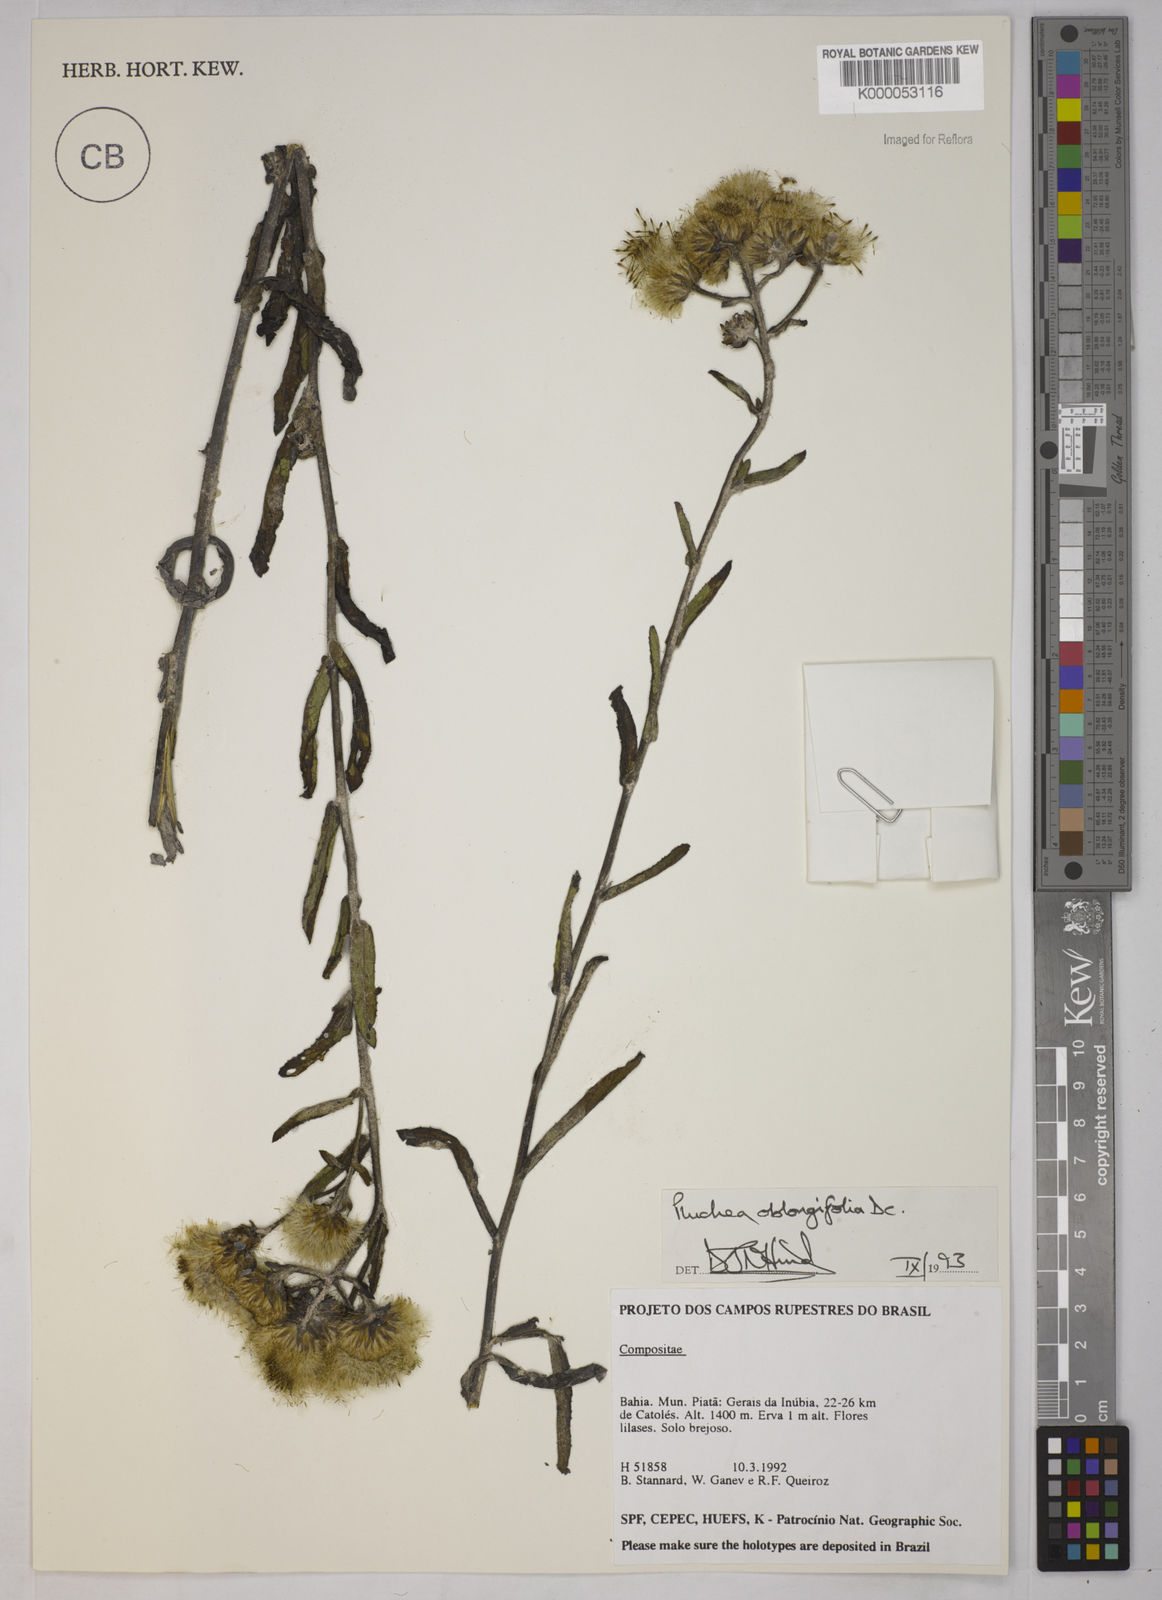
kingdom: Plantae
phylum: Tracheophyta
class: Magnoliopsida
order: Asterales
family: Asteraceae
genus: Pluchea
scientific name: Pluchea oblongifolia
